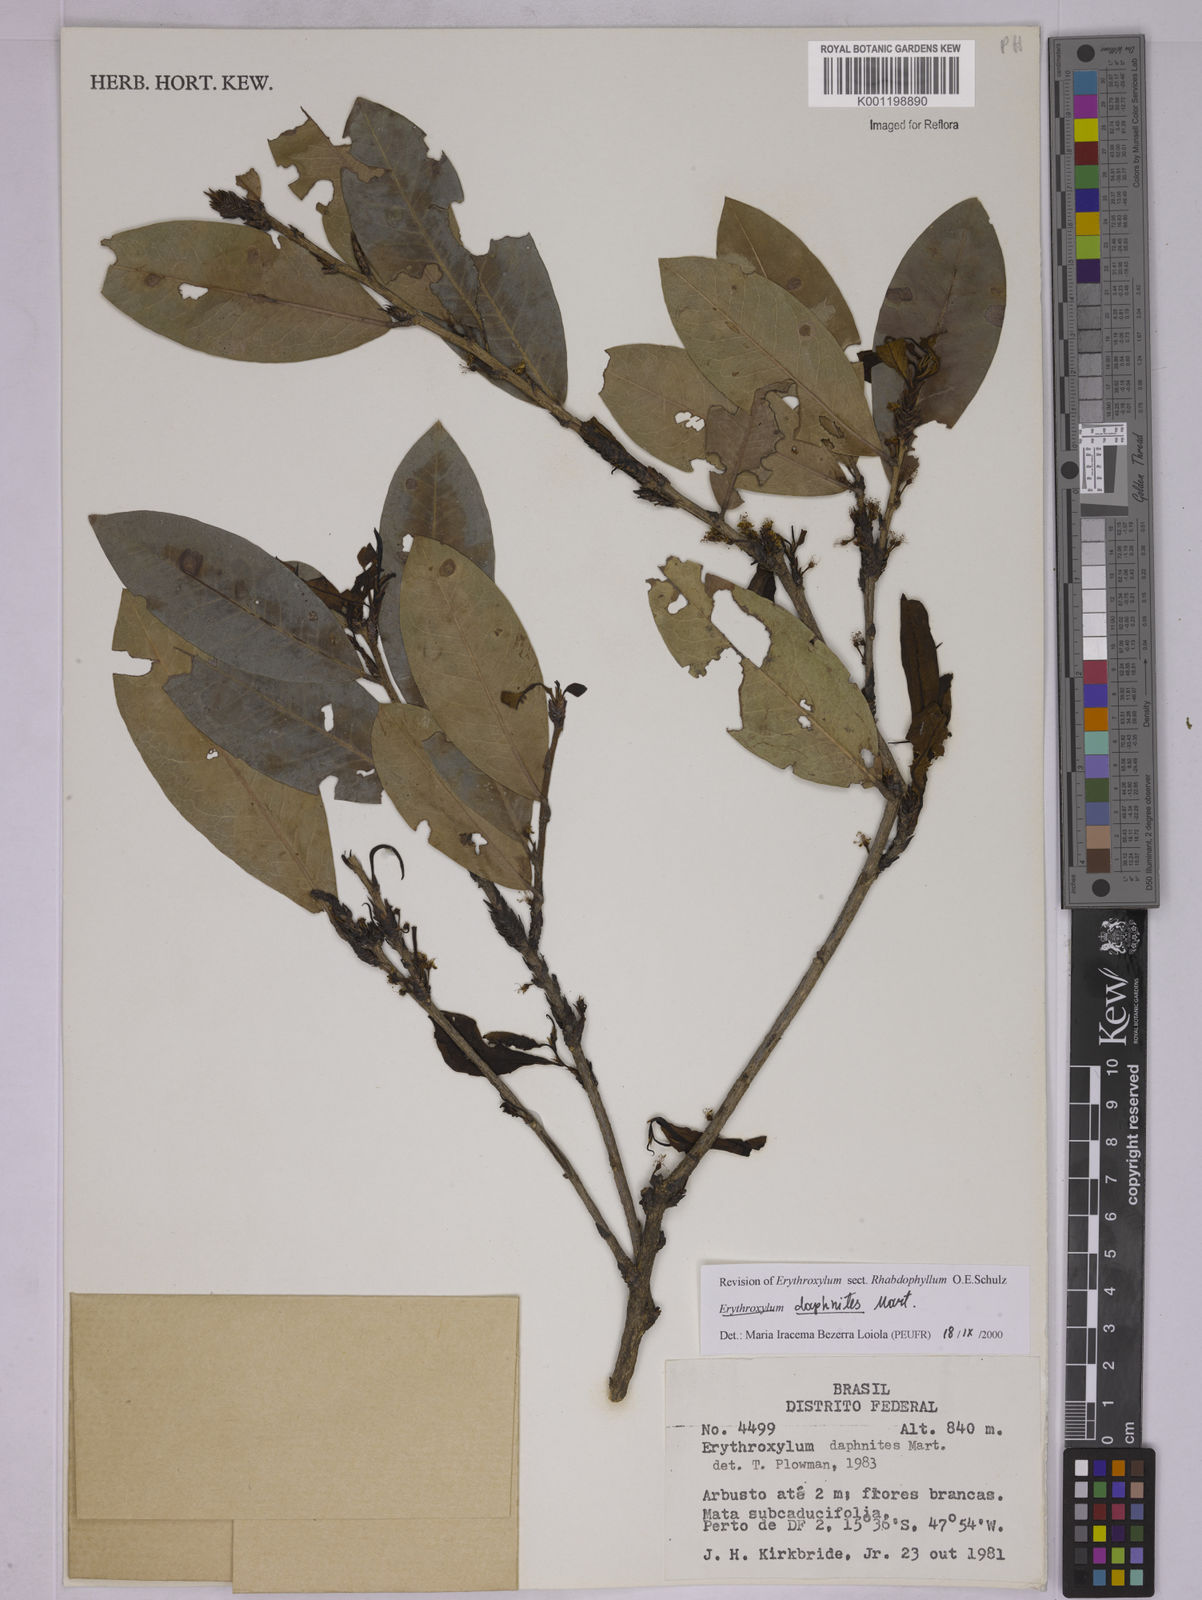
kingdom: Plantae
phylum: Tracheophyta
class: Magnoliopsida
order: Malpighiales
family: Erythroxylaceae
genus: Erythroxylum
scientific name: Erythroxylum daphnites
